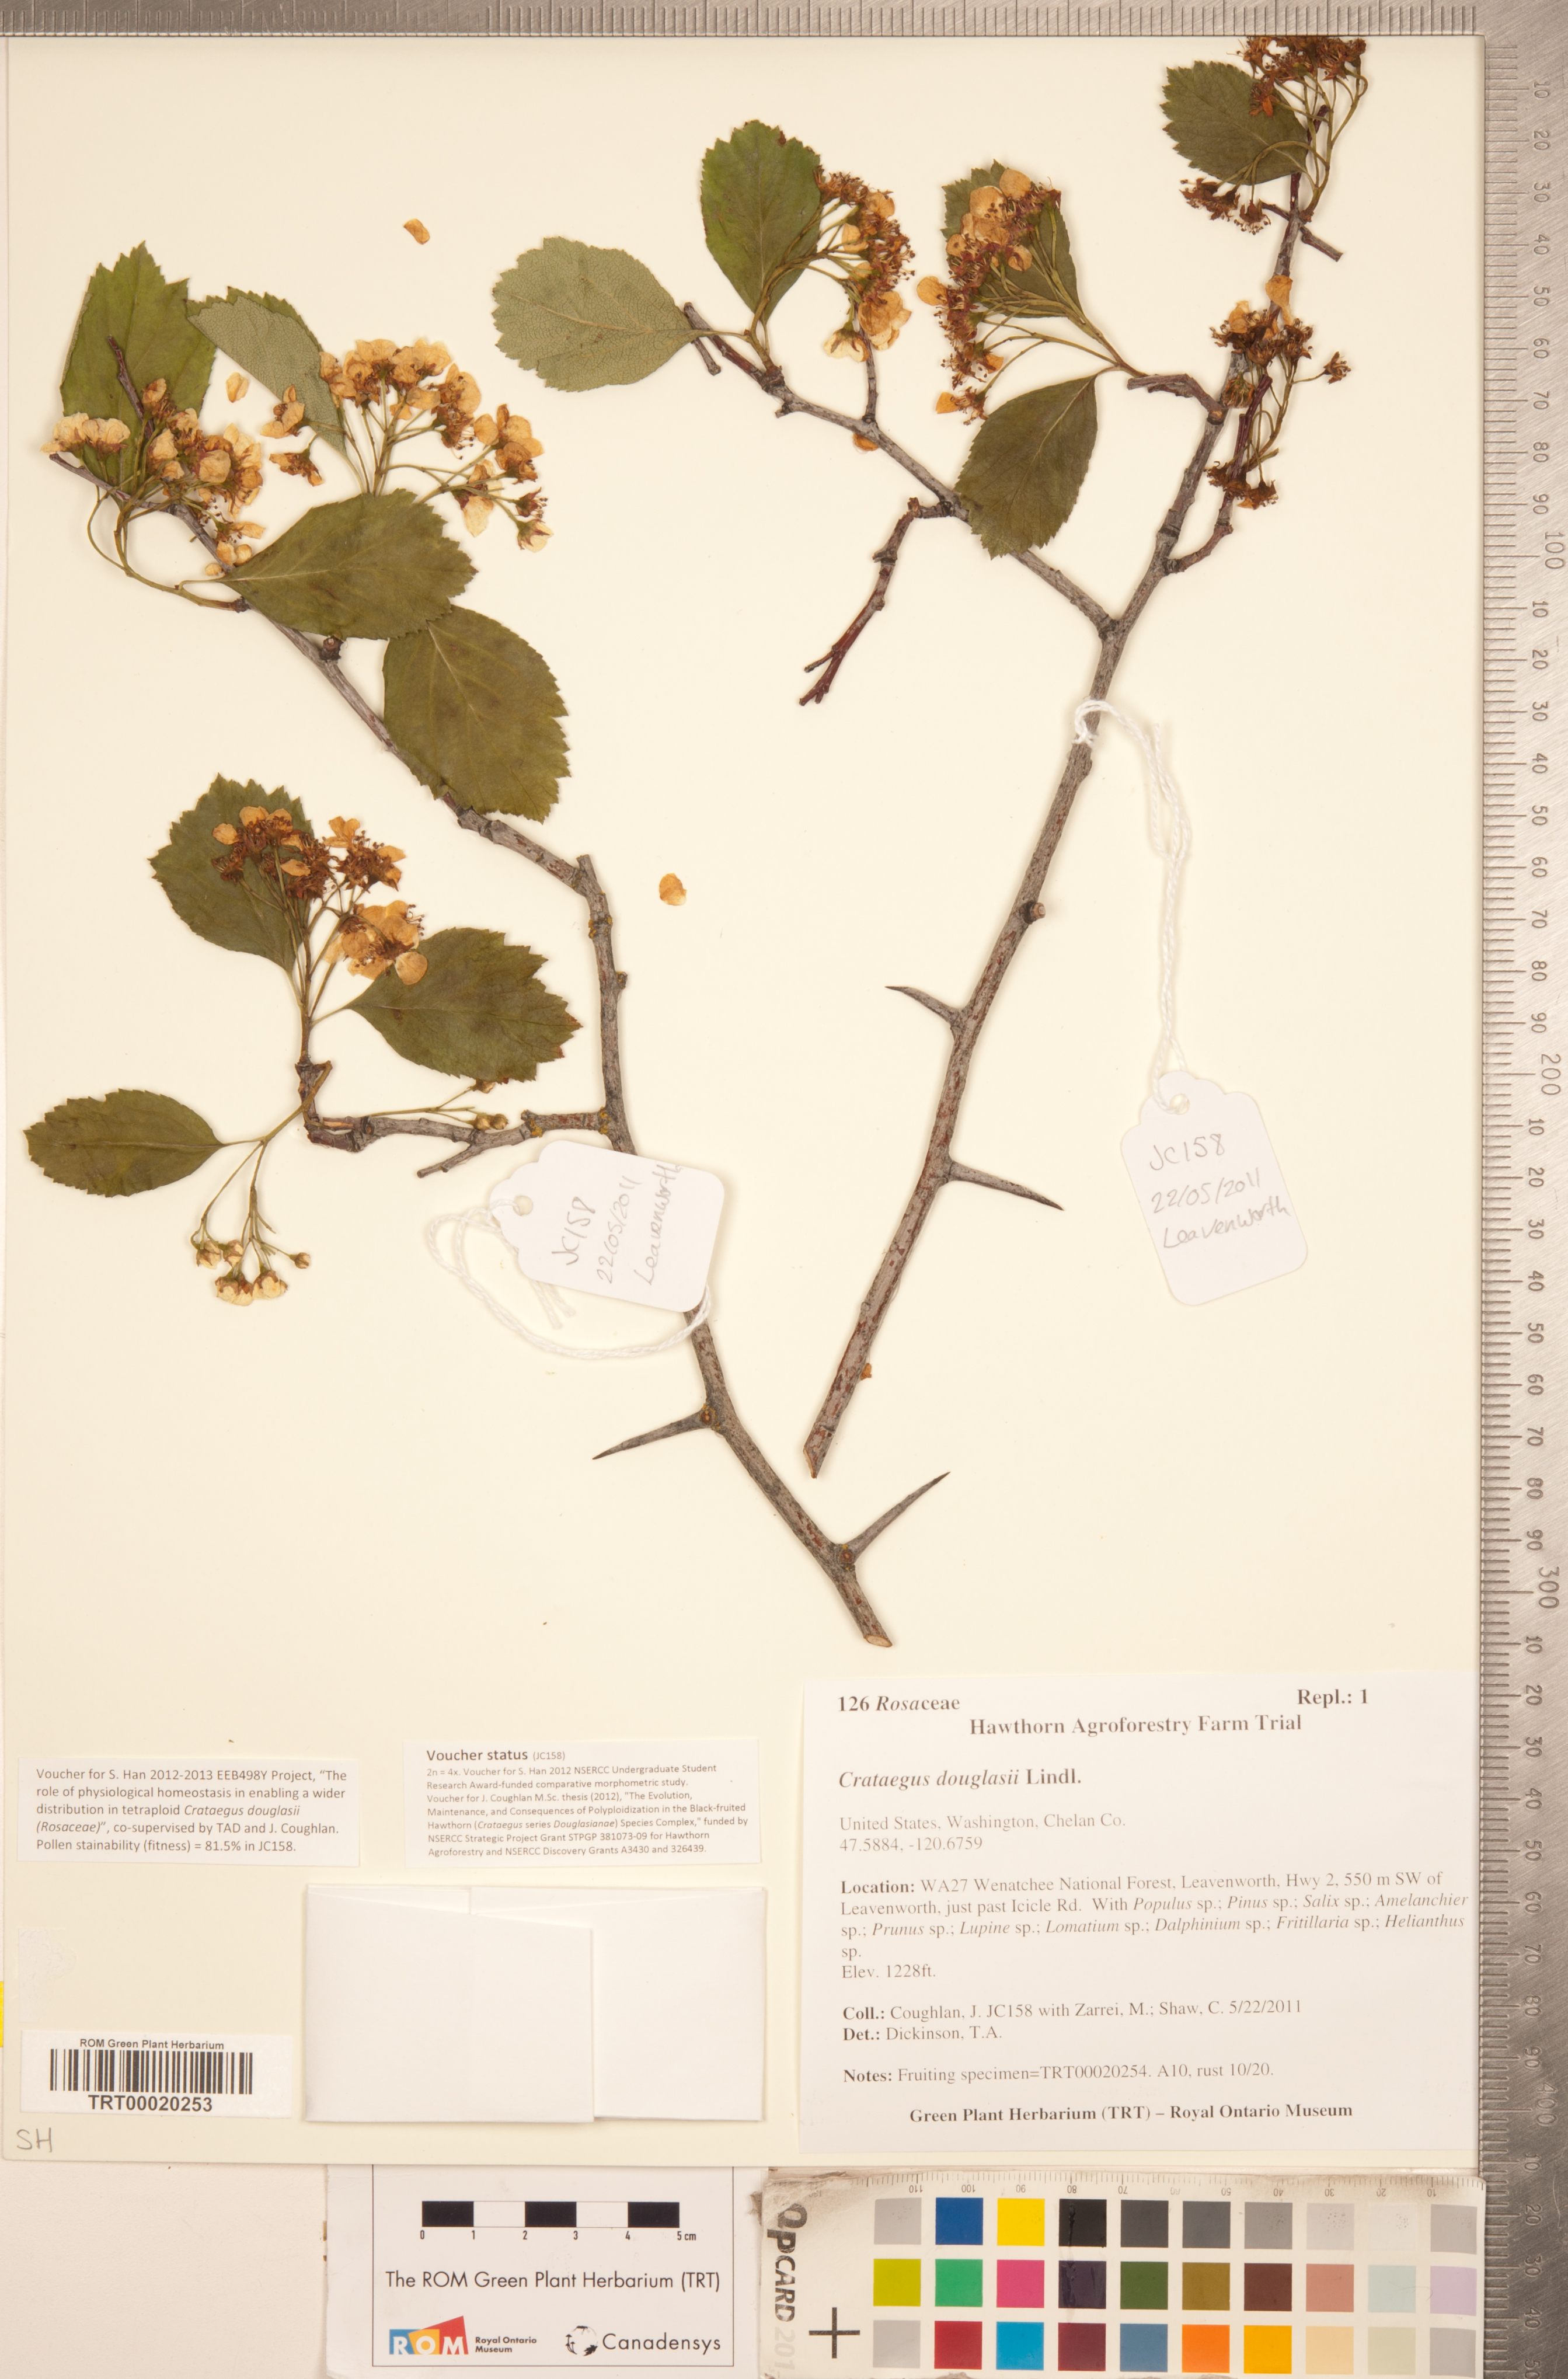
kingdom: Plantae
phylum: Tracheophyta
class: Magnoliopsida
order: Rosales
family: Rosaceae
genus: Crataegus
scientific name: Crataegus douglasii
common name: Black hawthorn
